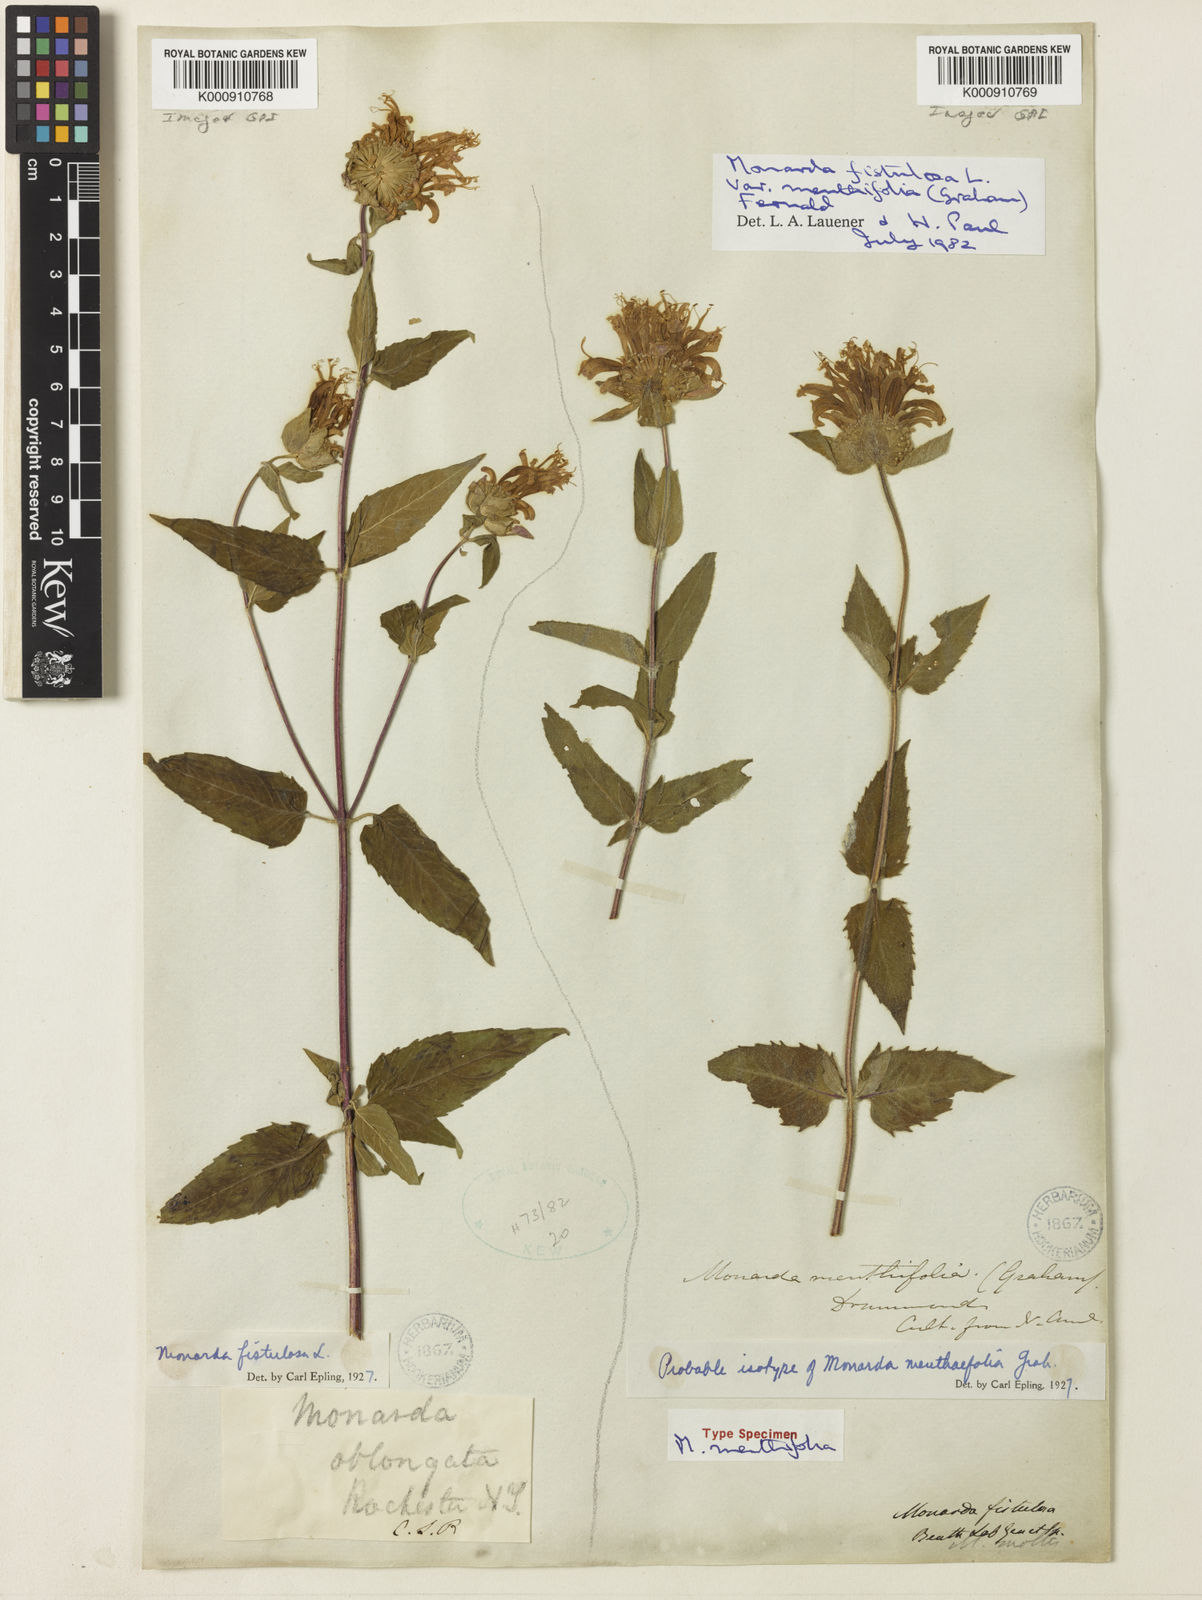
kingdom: Plantae
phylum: Tracheophyta
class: Magnoliopsida
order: Lamiales
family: Lamiaceae
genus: Monarda
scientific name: Monarda fistulosa
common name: Purple beebalm
